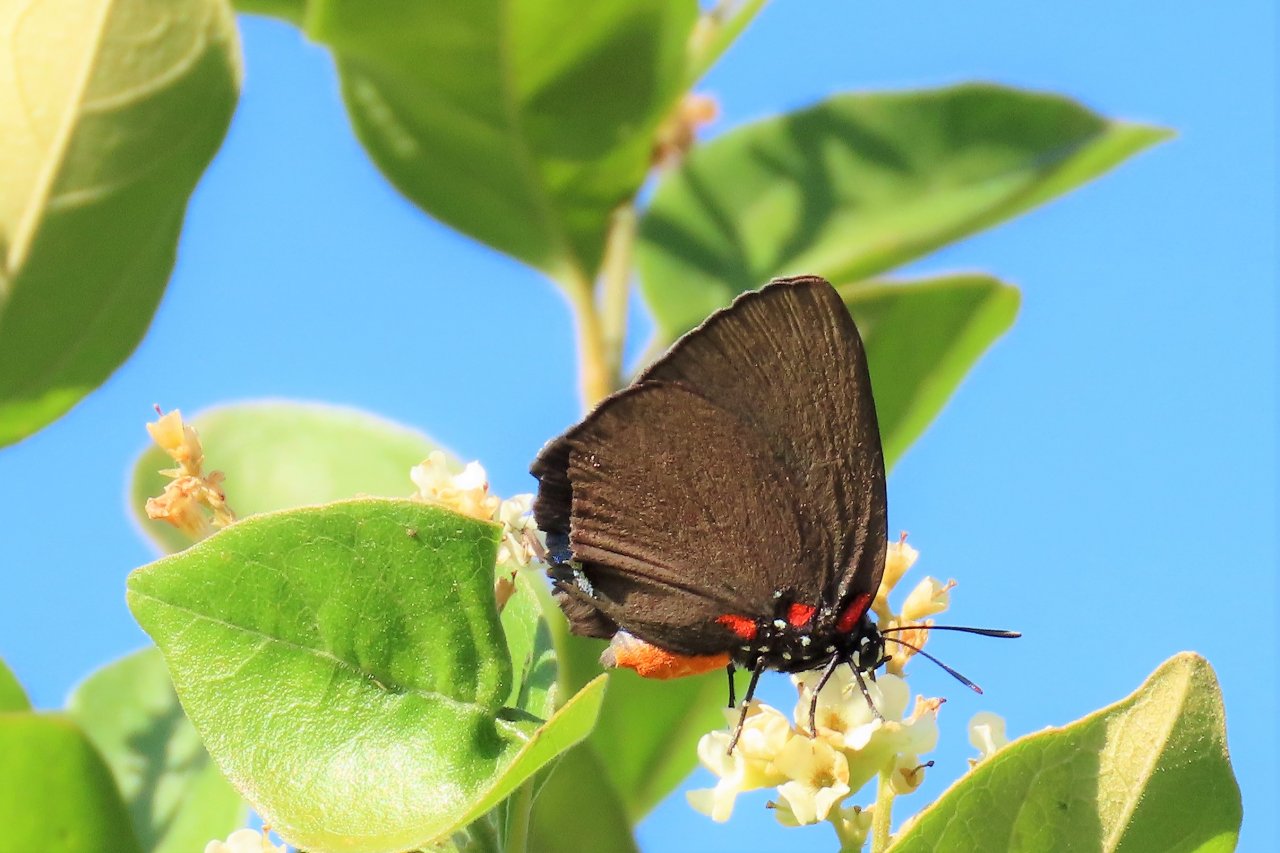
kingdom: Animalia
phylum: Arthropoda
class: Insecta
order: Lepidoptera
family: Lycaenidae
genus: Atlides
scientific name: Atlides halesus
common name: Great Purple Hairstreak
